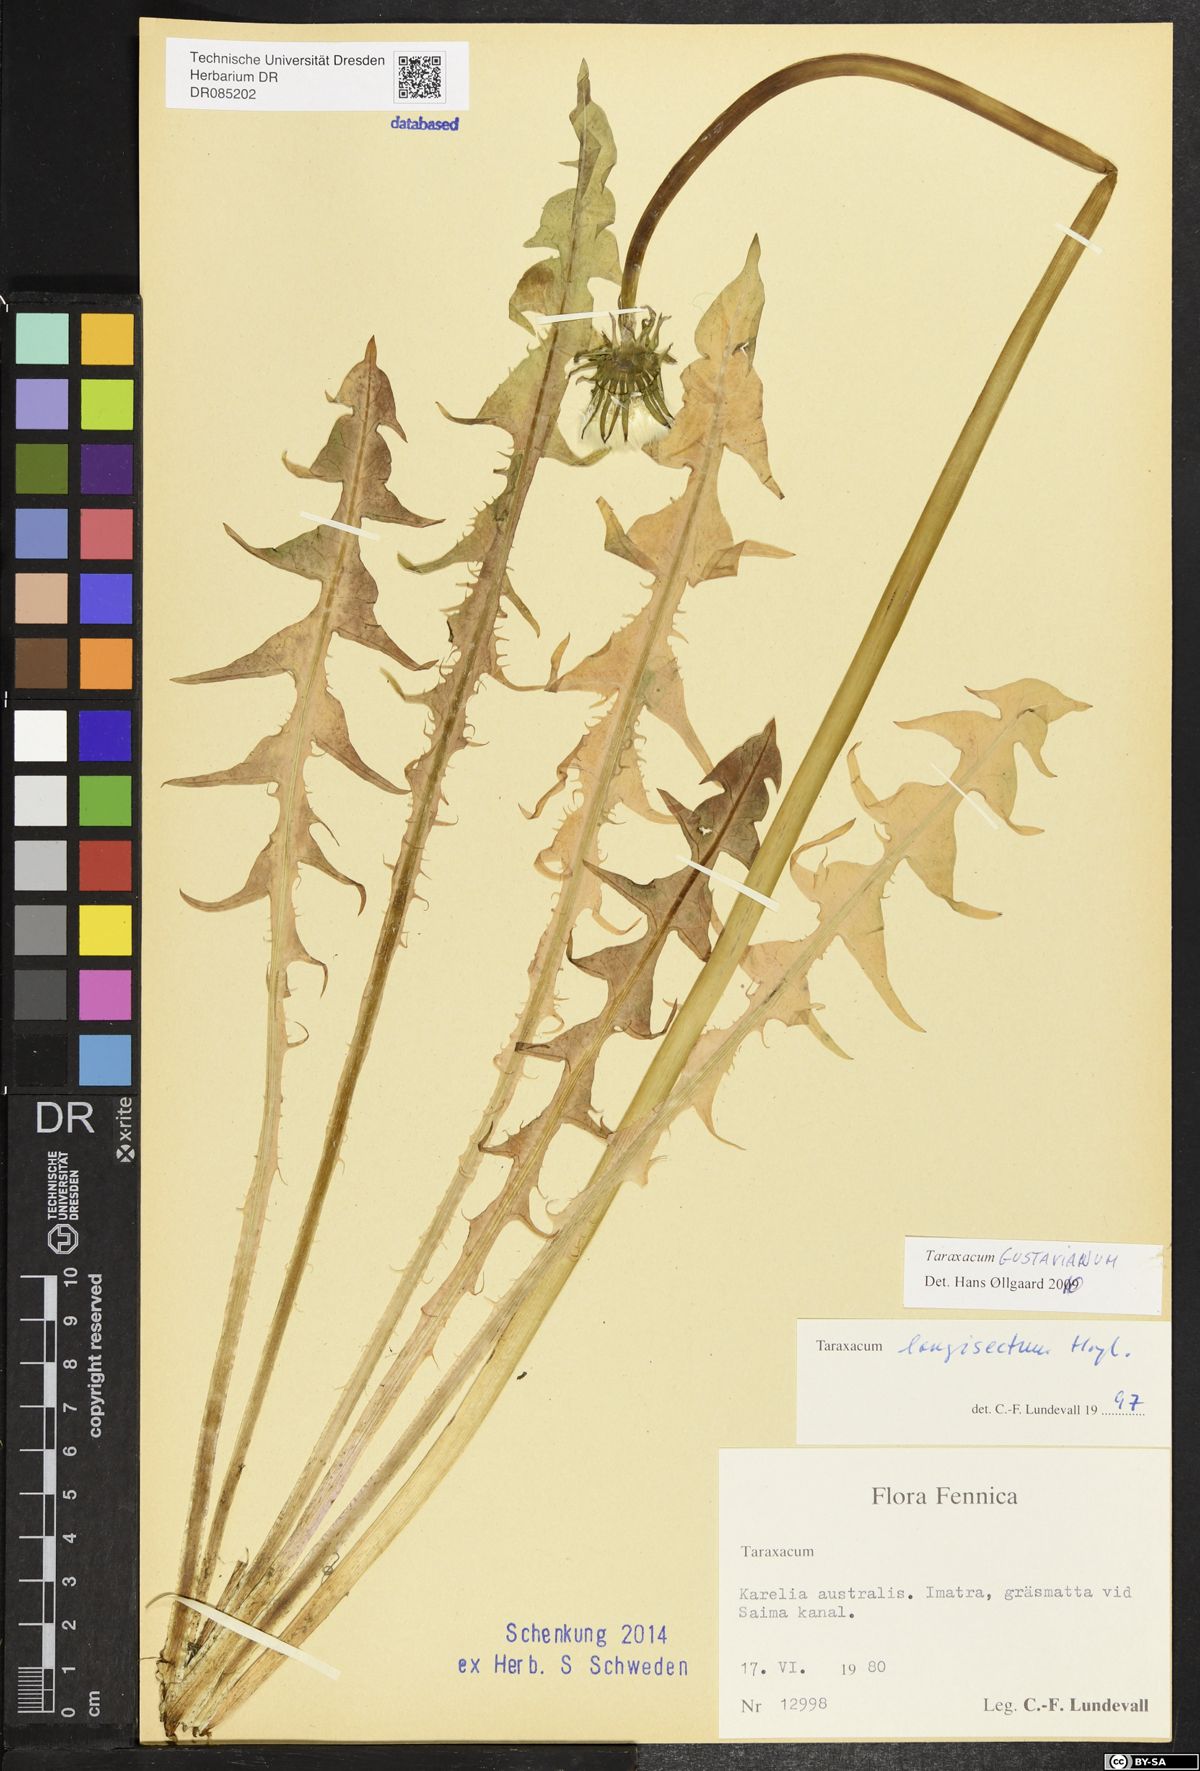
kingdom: Plantae
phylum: Tracheophyta
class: Magnoliopsida
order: Asterales
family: Asteraceae
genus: Taraxacum
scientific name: Taraxacum gustavianum
